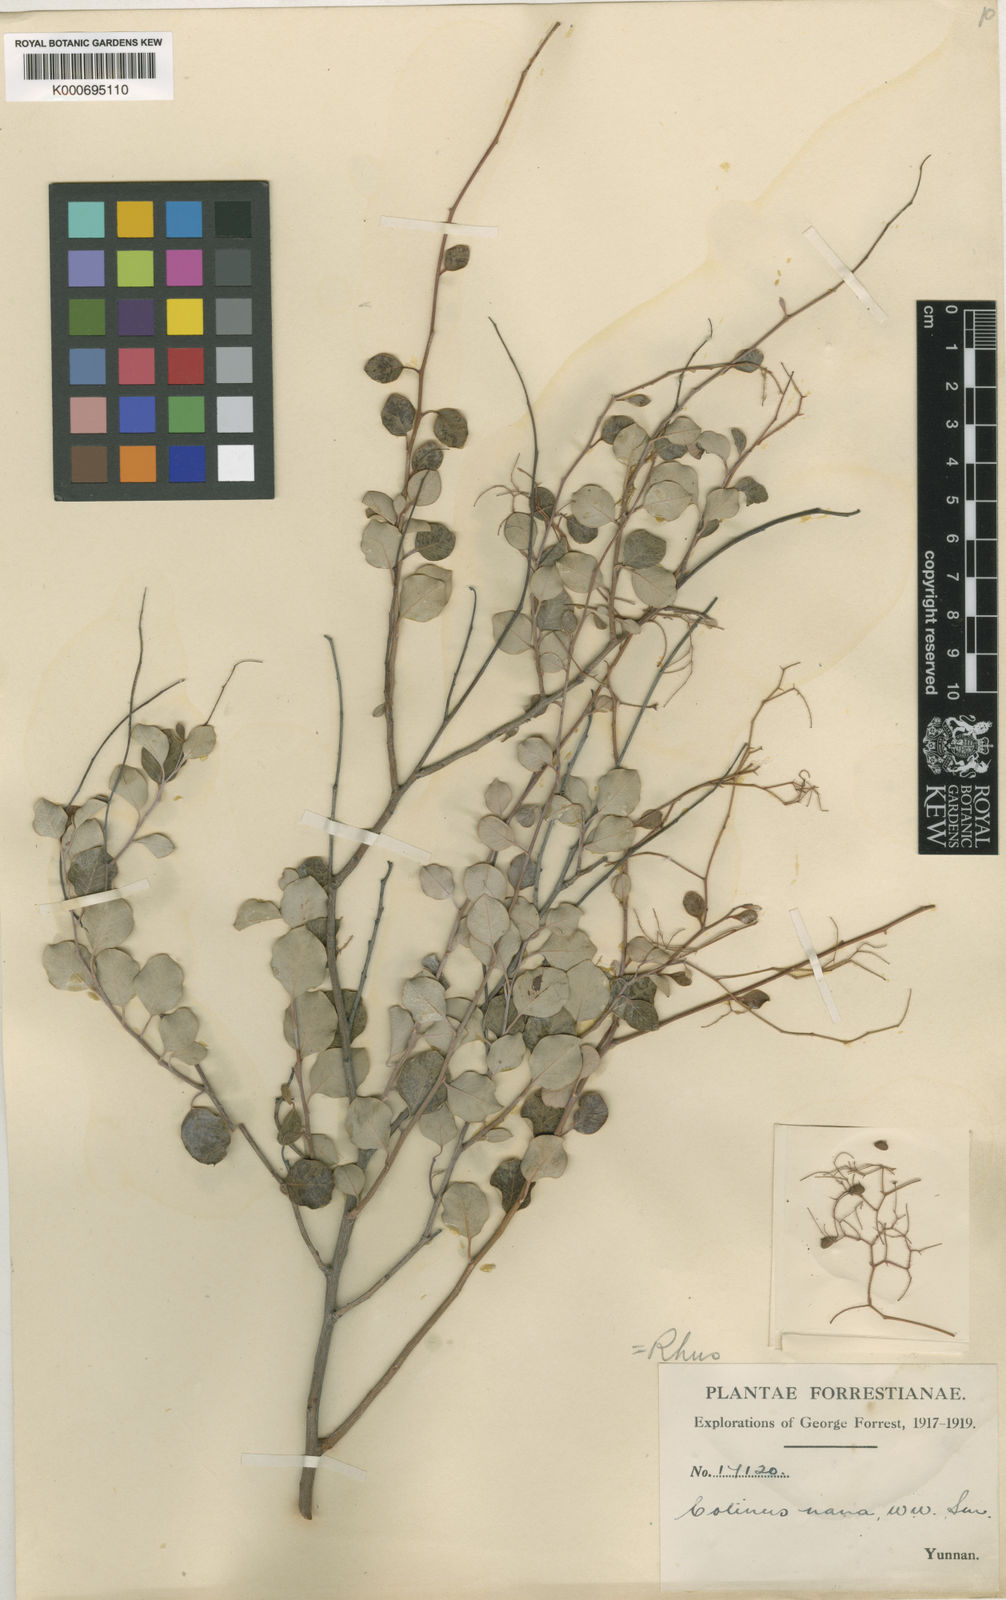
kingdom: Plantae
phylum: Tracheophyta
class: Magnoliopsida
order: Sapindales
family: Anacardiaceae
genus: Cotinus
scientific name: Cotinus
